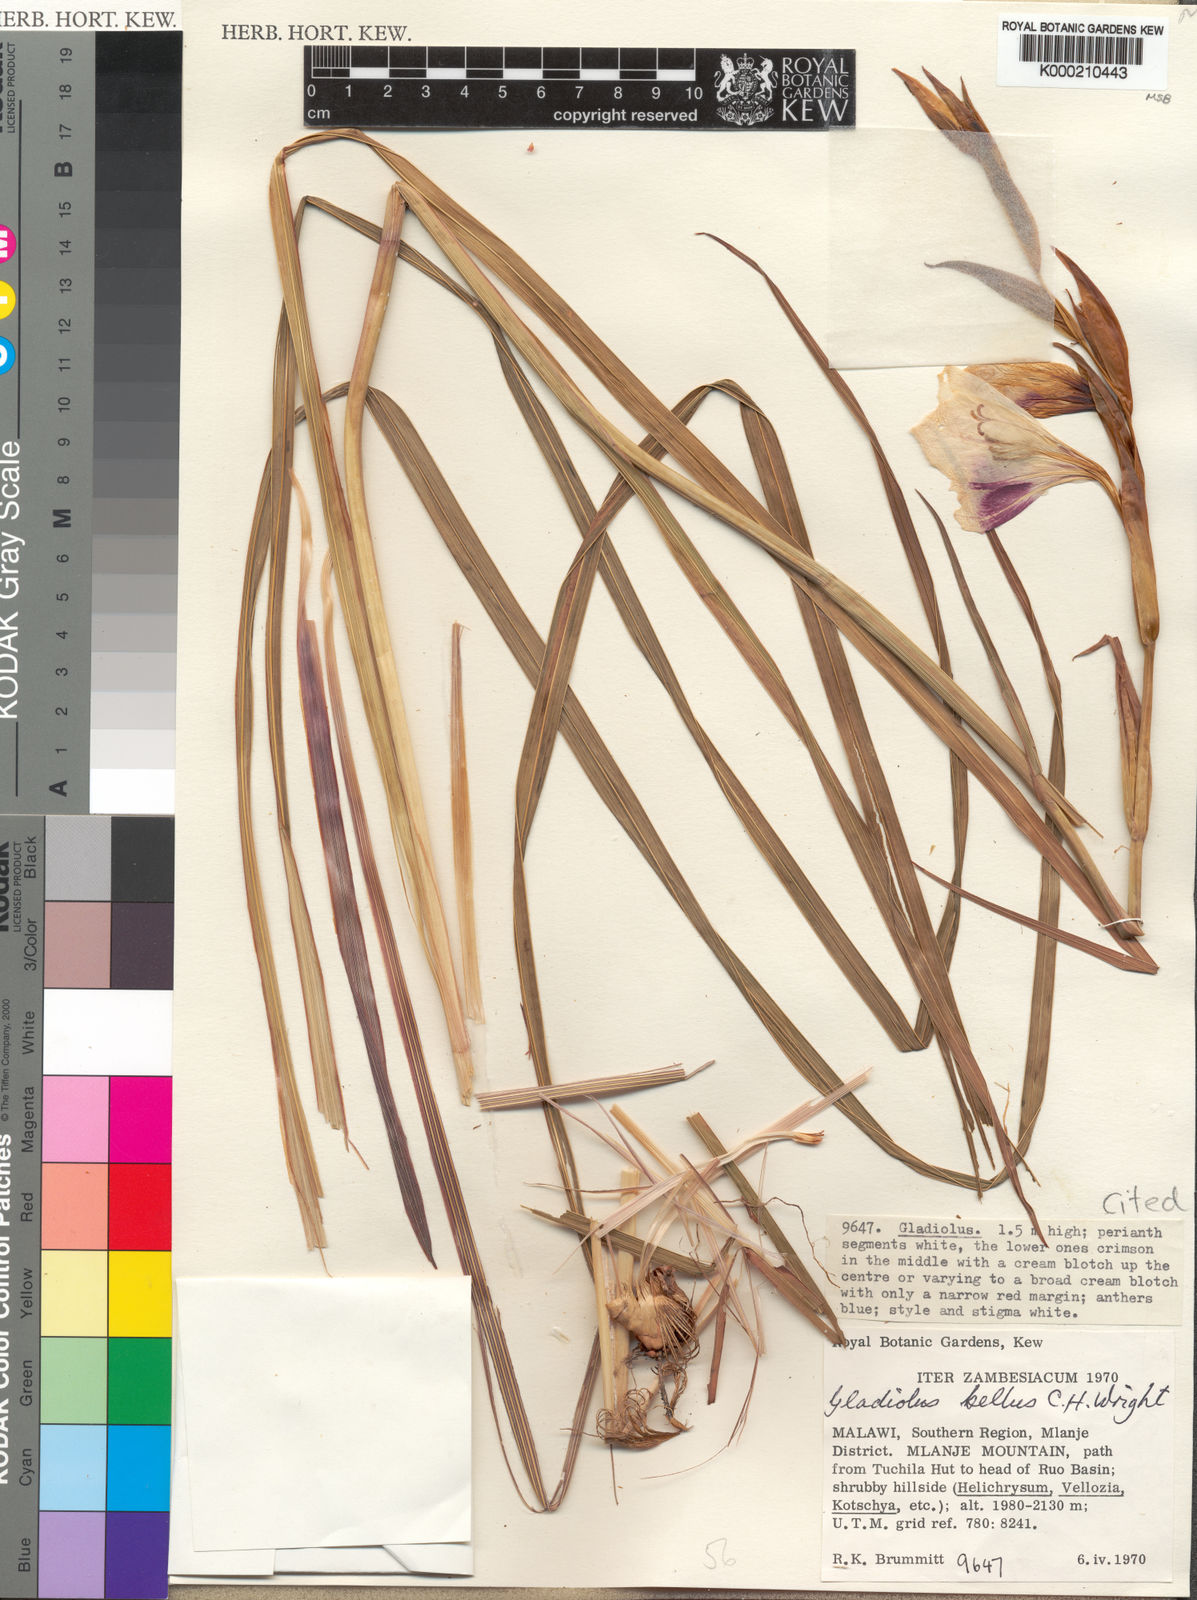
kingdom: Plantae
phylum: Tracheophyta
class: Liliopsida
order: Asparagales
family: Iridaceae
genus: Gladiolus
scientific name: Gladiolus bellus
